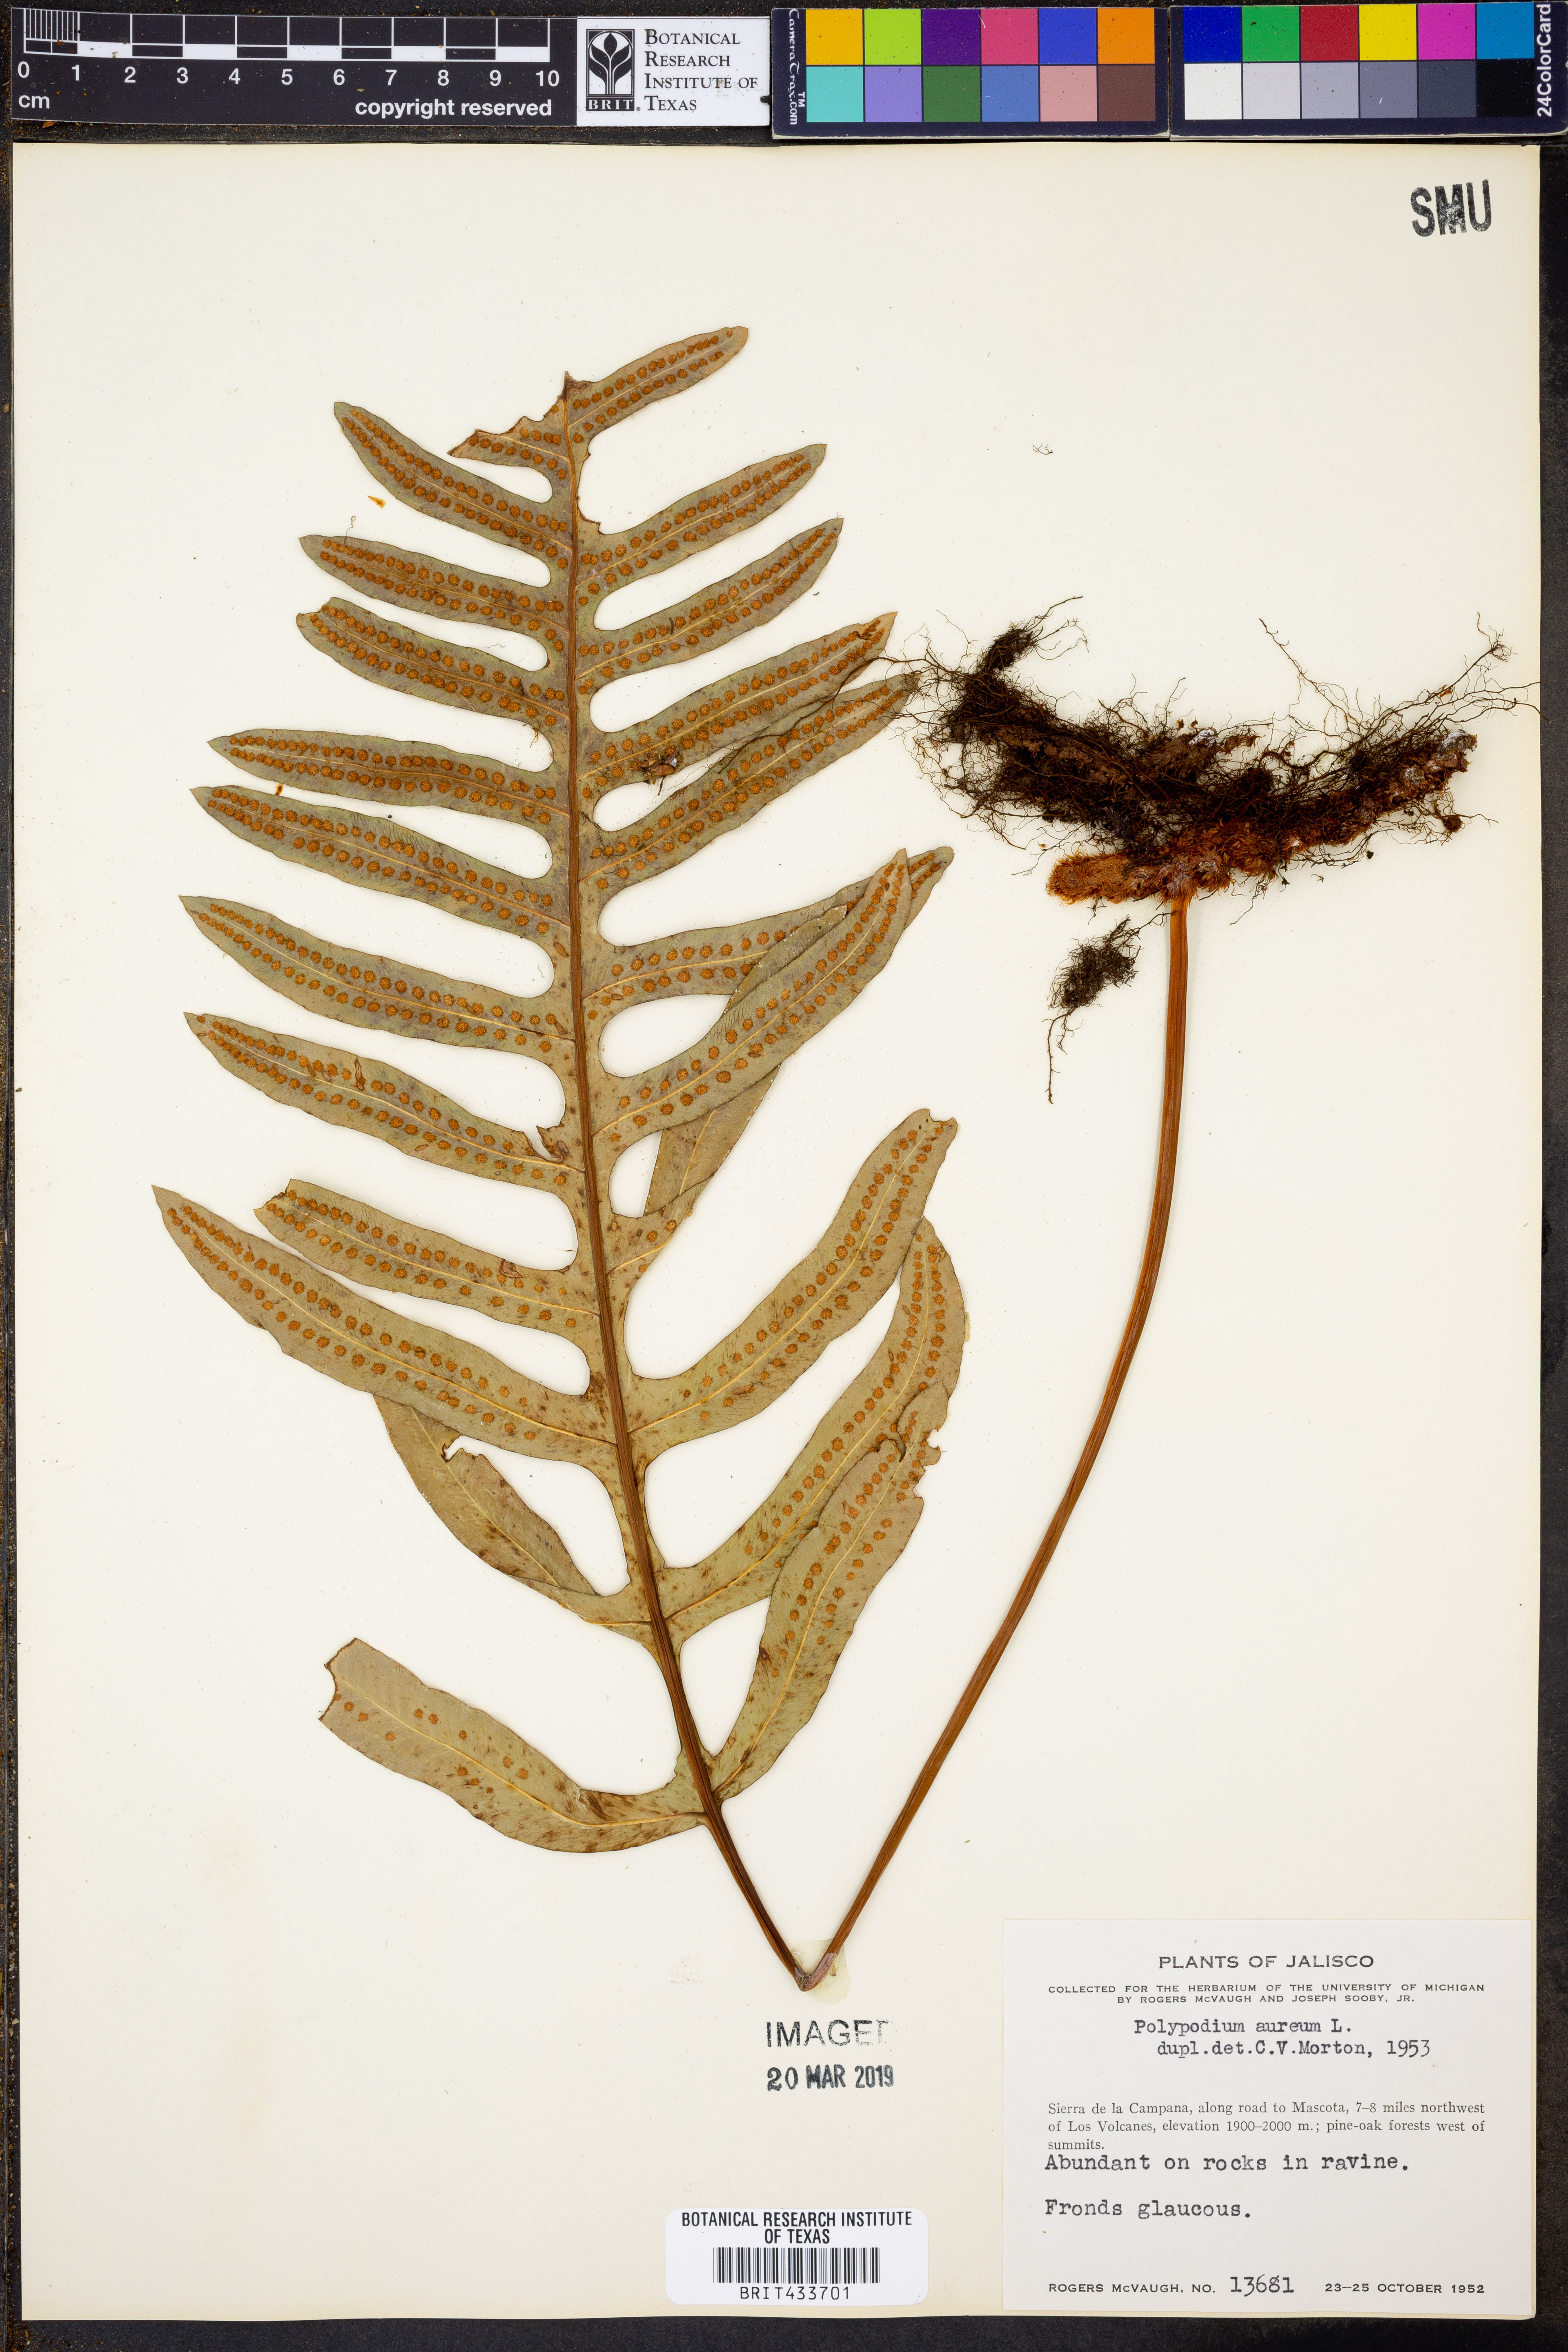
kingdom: Plantae
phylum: Tracheophyta
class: Polypodiopsida
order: Polypodiales
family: Polypodiaceae
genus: Phlebodium
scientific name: Phlebodium aureum
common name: Gold-foot fern
